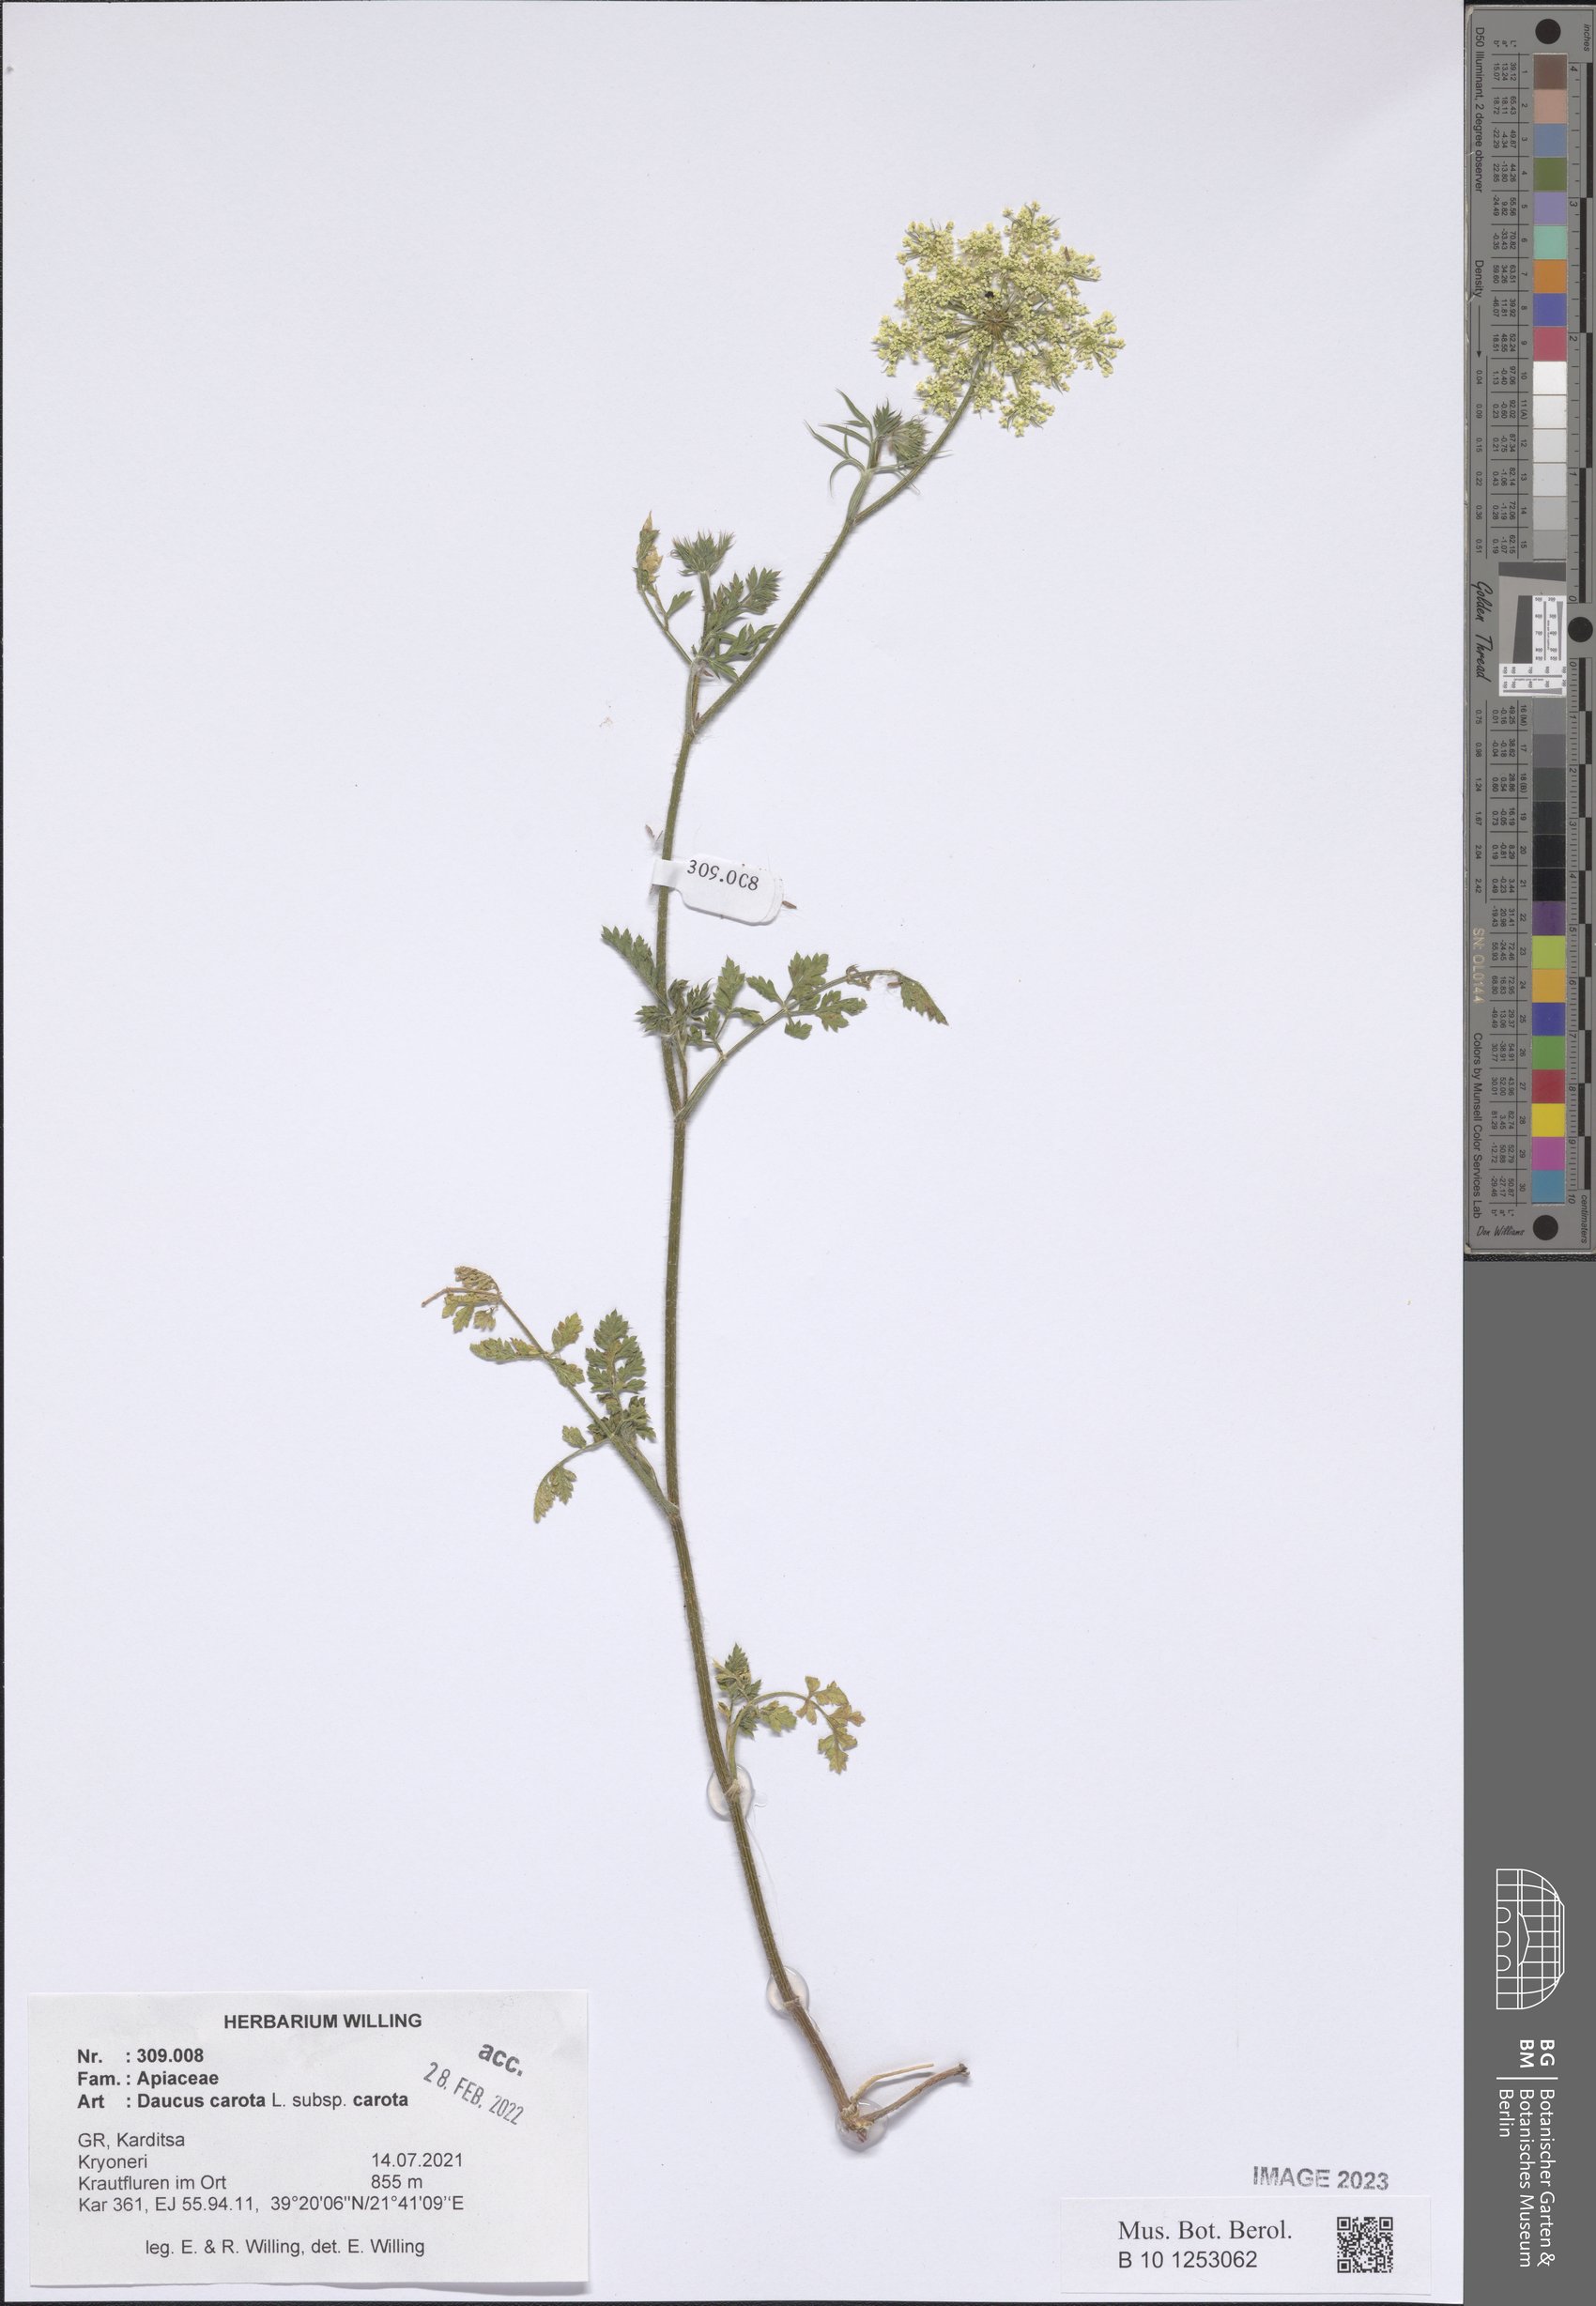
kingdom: Plantae
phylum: Tracheophyta
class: Magnoliopsida
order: Apiales
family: Apiaceae
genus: Daucus
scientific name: Daucus carota
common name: Wild carrot
